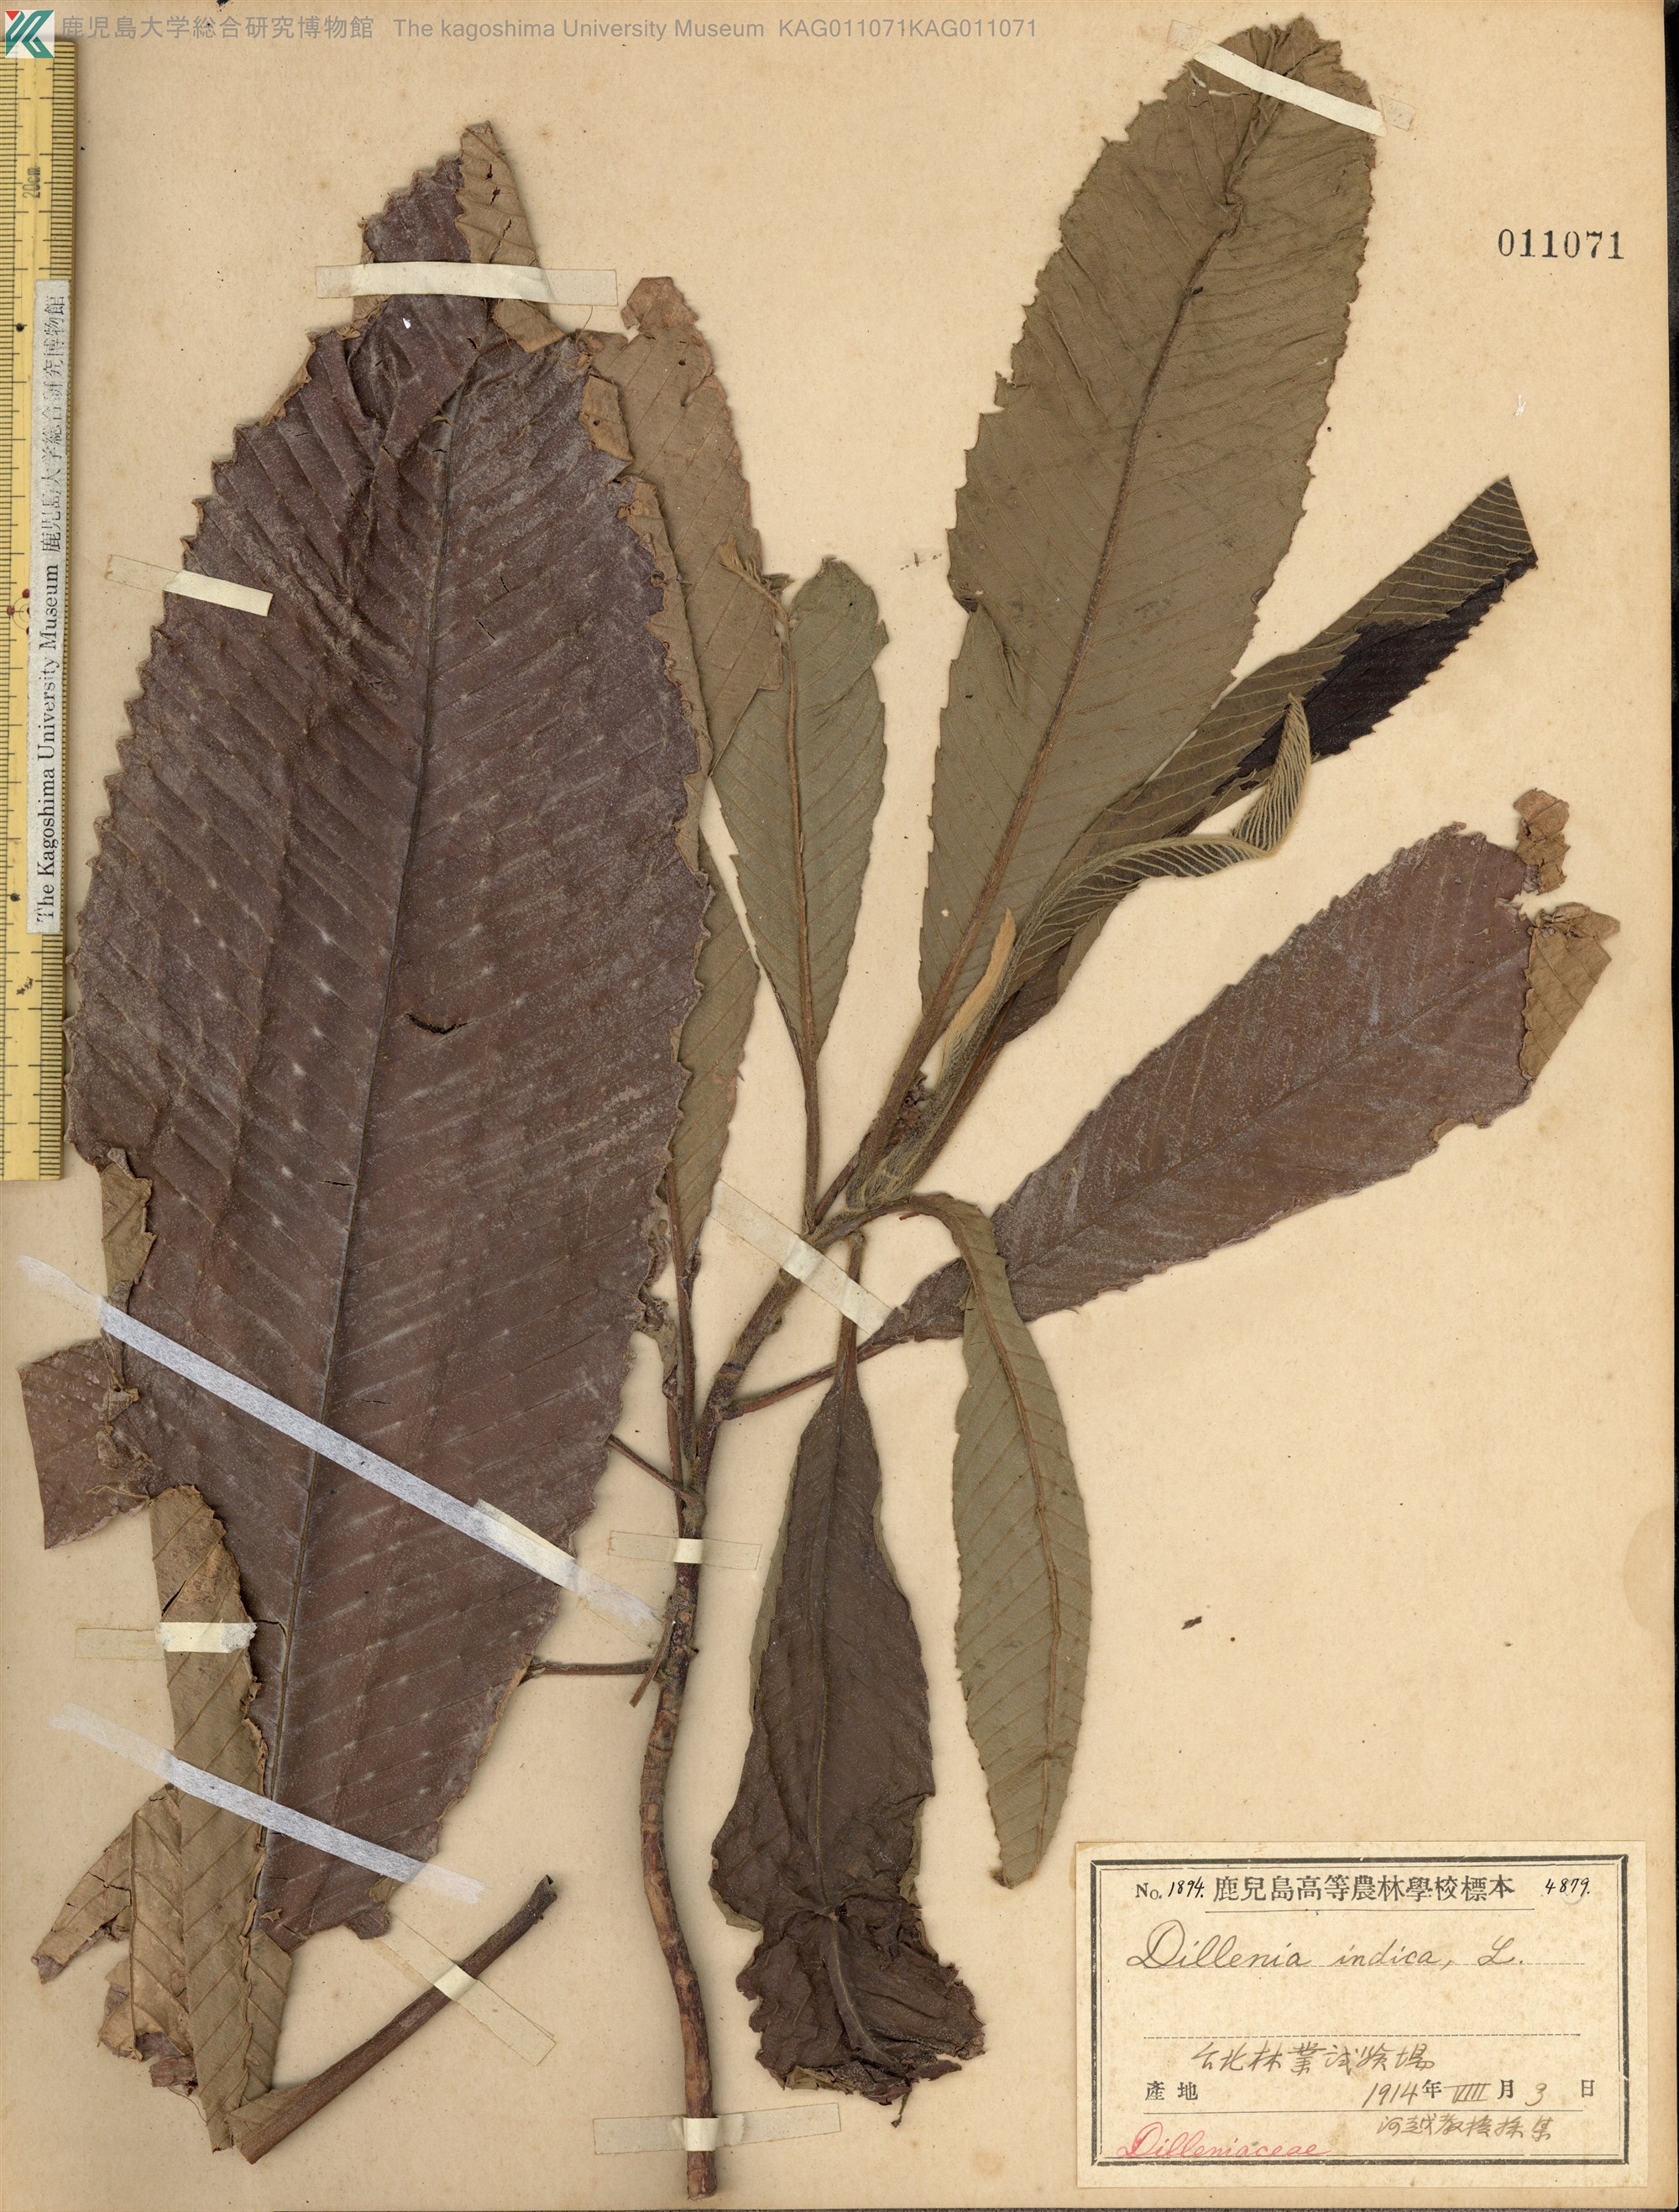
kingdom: Plantae
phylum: Tracheophyta
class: Magnoliopsida
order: Dilleniales
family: Dilleniaceae
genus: Dillenia
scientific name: Dillenia indica
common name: Elephant apple
